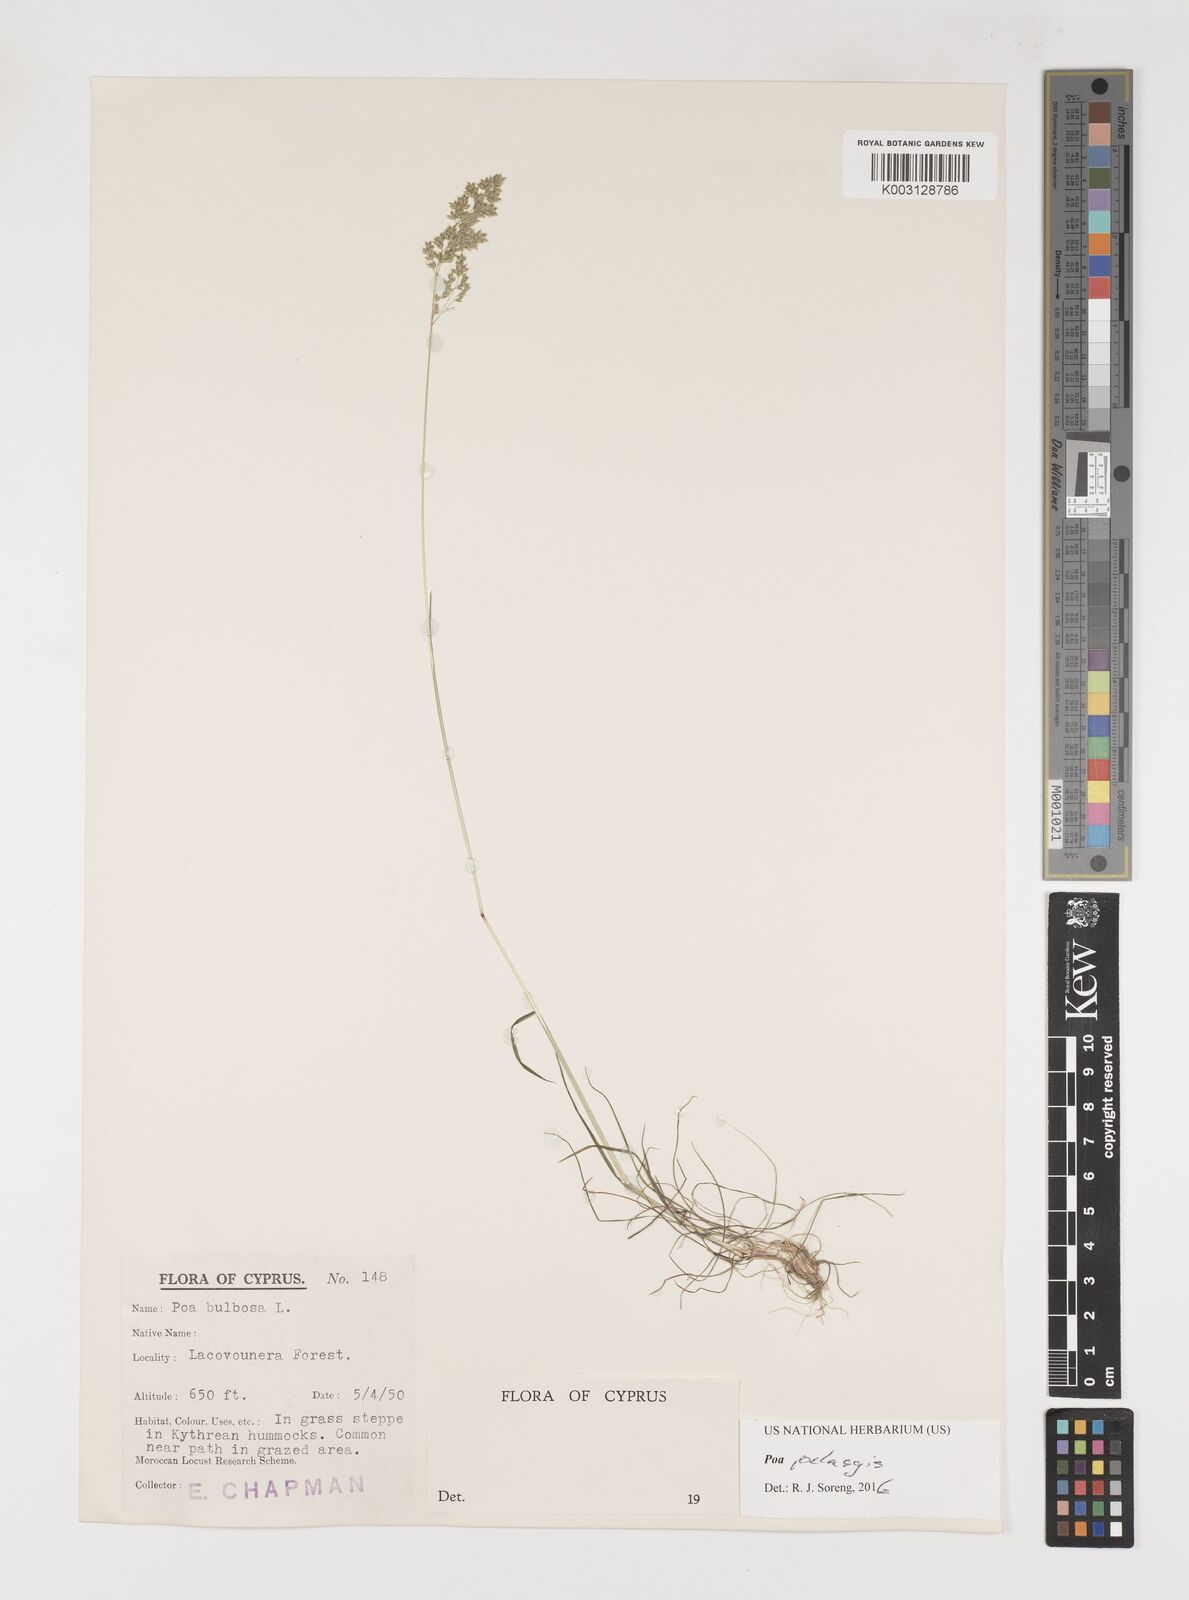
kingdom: Plantae
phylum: Tracheophyta
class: Liliopsida
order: Poales
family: Poaceae
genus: Poa
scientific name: Poa iconia
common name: Konya bluegrass
